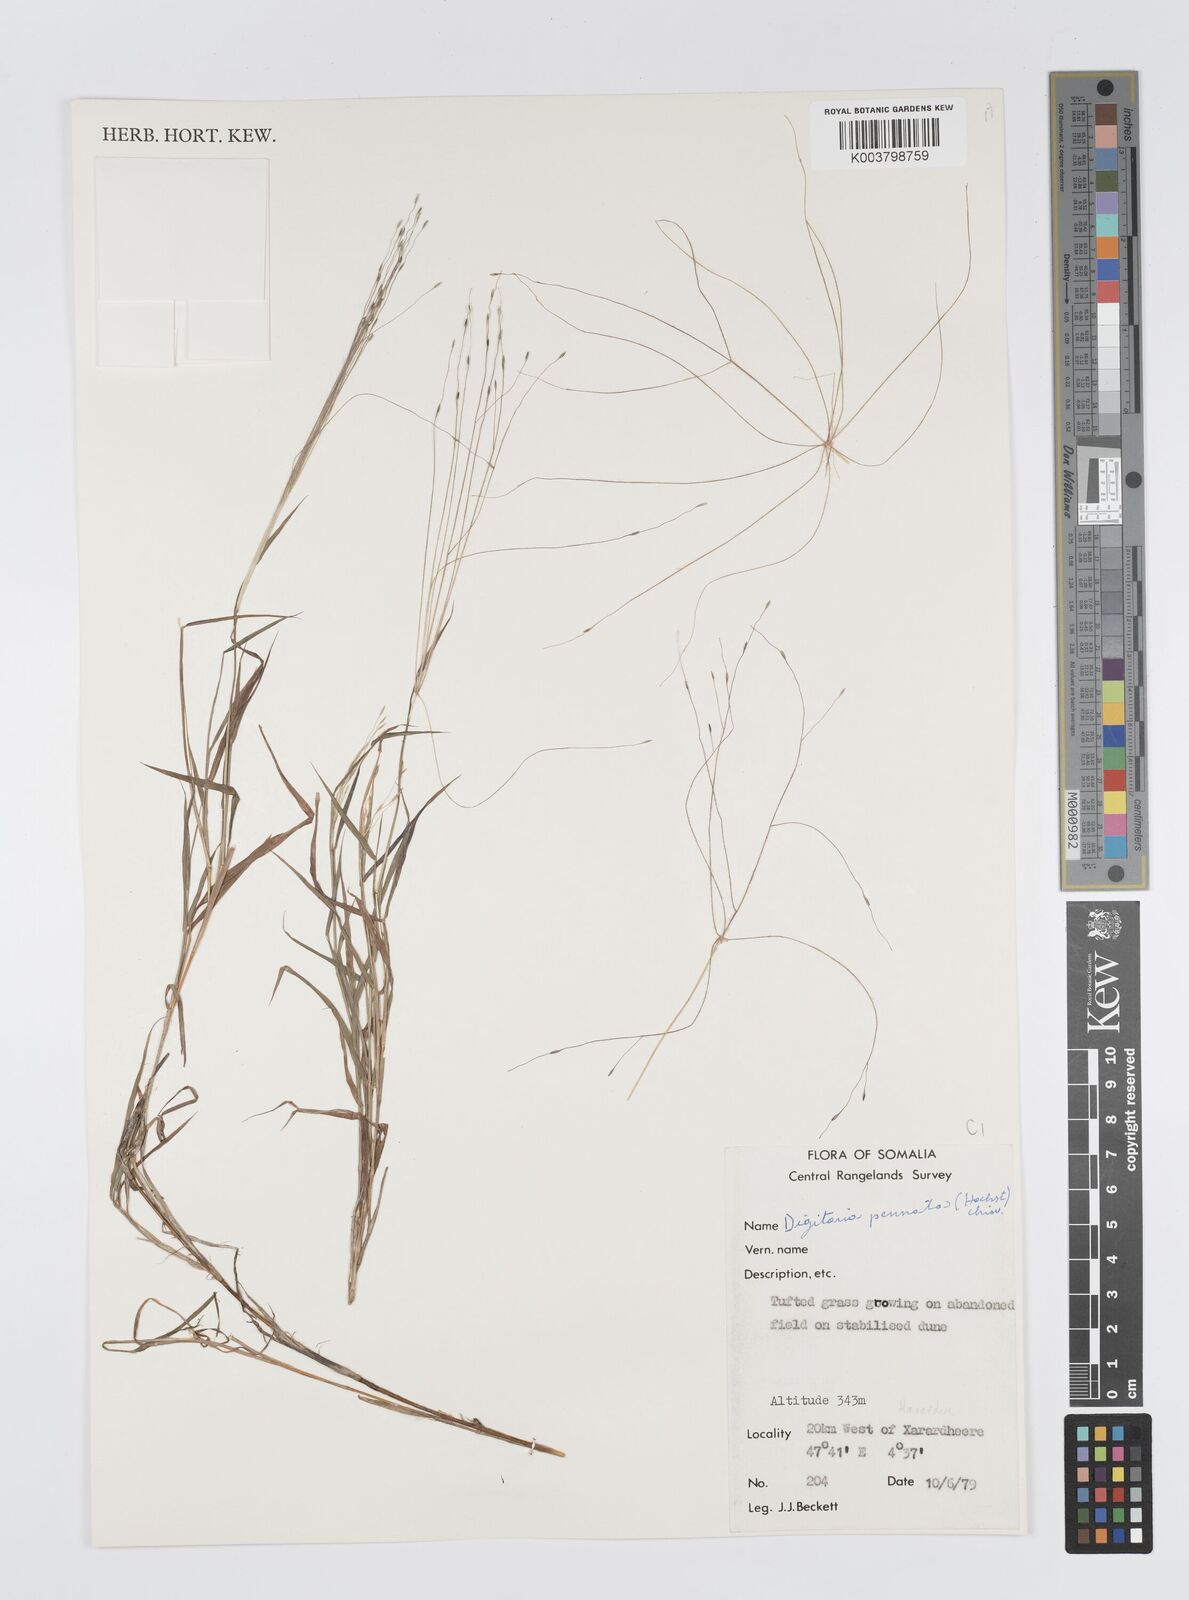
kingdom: Plantae
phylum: Tracheophyta
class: Liliopsida
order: Poales
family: Poaceae
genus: Digitaria
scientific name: Digitaria pennata
